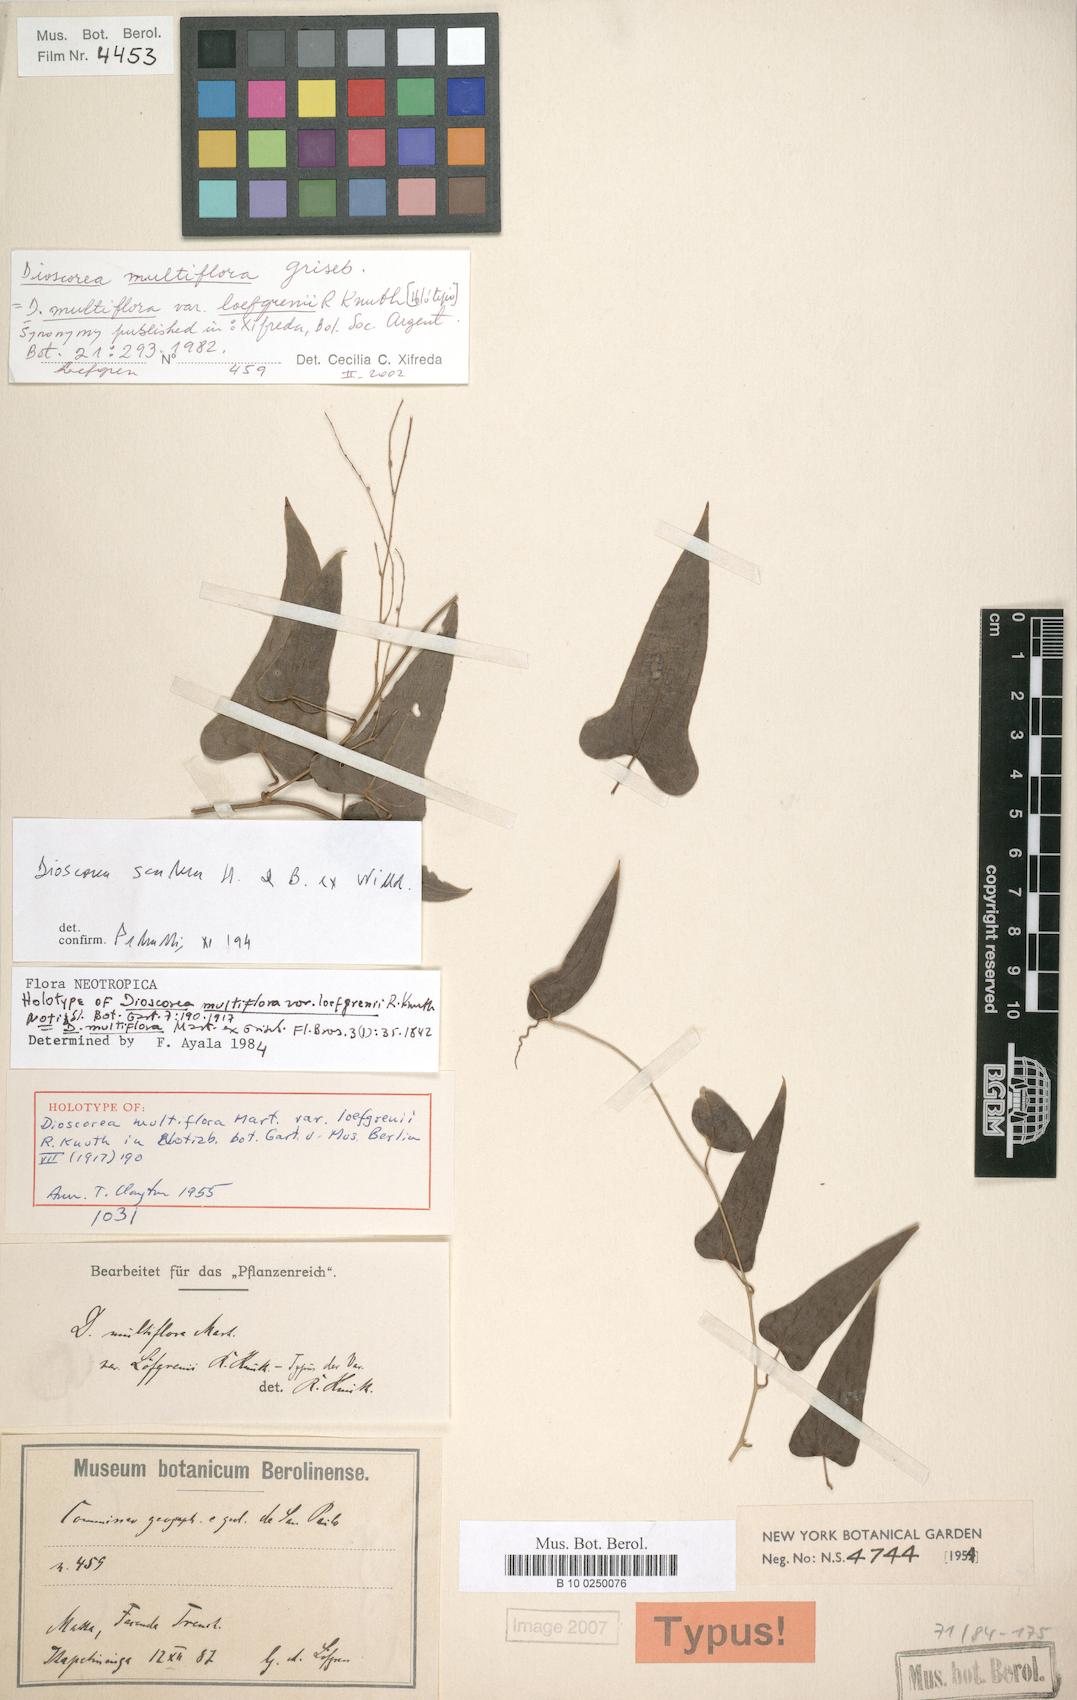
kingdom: Plantae
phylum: Tracheophyta
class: Liliopsida
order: Dioscoreales
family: Dioscoreaceae
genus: Dioscorea
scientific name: Dioscorea multiflora
